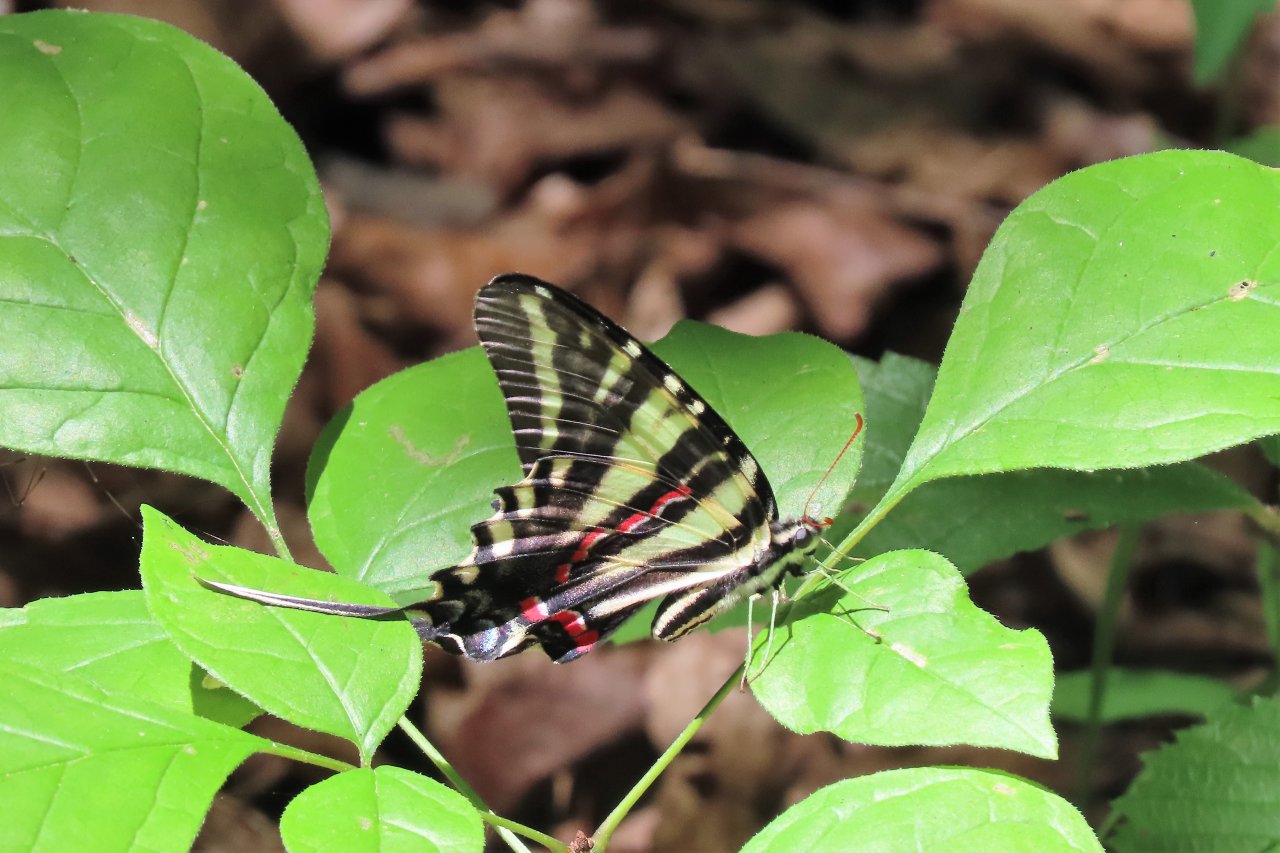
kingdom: Animalia
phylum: Arthropoda
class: Insecta
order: Lepidoptera
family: Papilionidae
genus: Protographium
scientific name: Protographium marcellus
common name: Zebra Swallowtail
